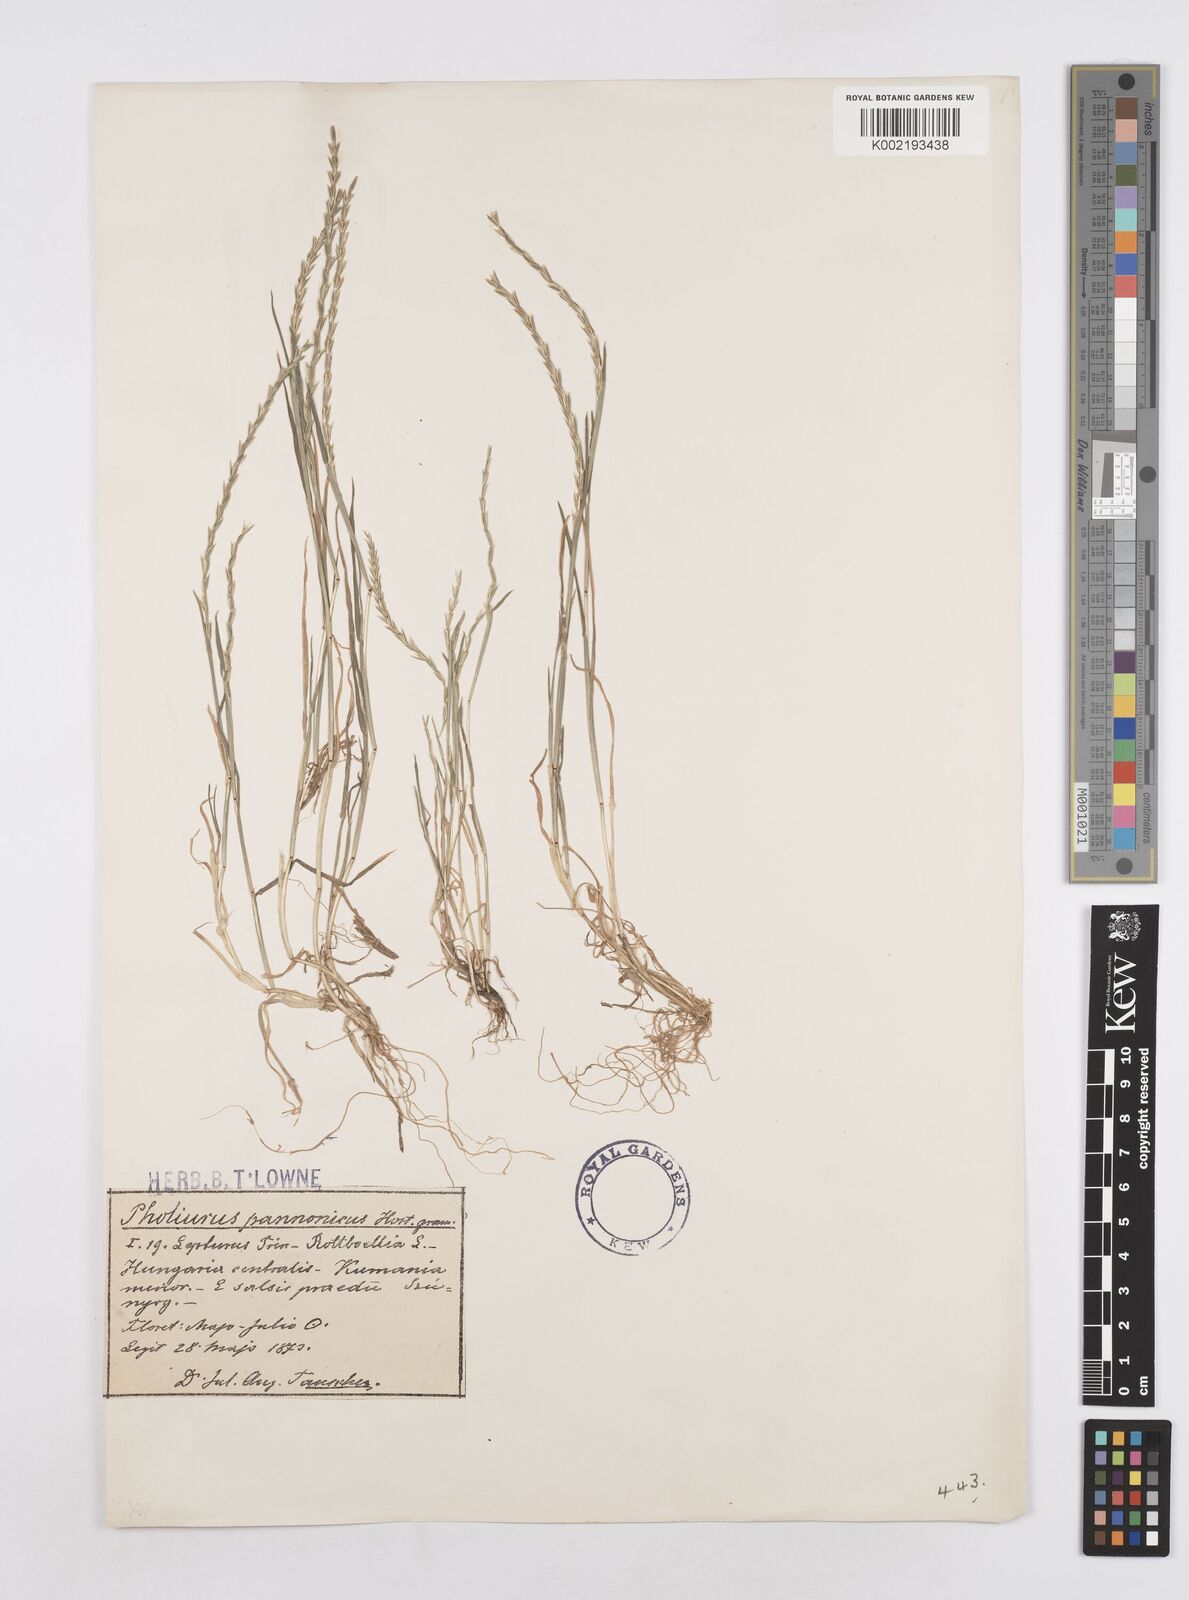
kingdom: Plantae
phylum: Tracheophyta
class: Liliopsida
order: Poales
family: Poaceae
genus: Pholiurus
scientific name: Pholiurus pannonicus
